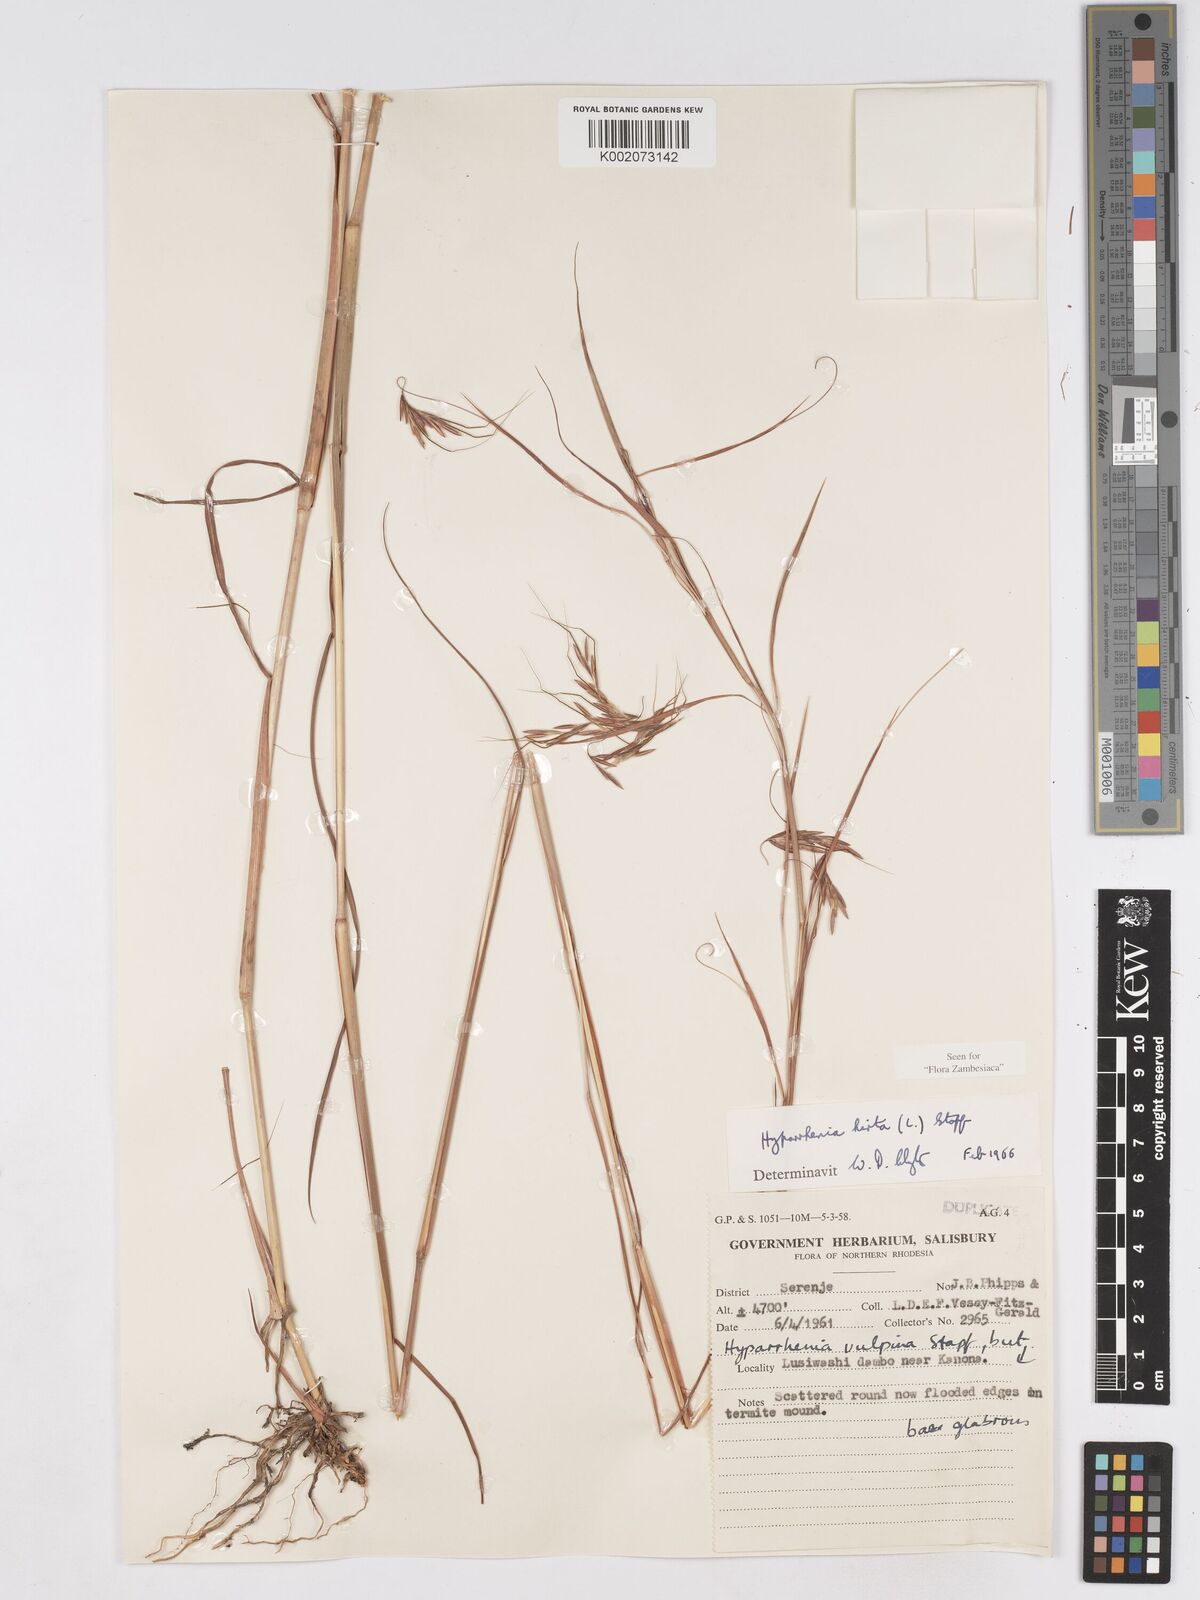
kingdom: Plantae
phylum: Tracheophyta
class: Liliopsida
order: Poales
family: Poaceae
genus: Hyparrhenia
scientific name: Hyparrhenia hirta
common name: Thatching grass
